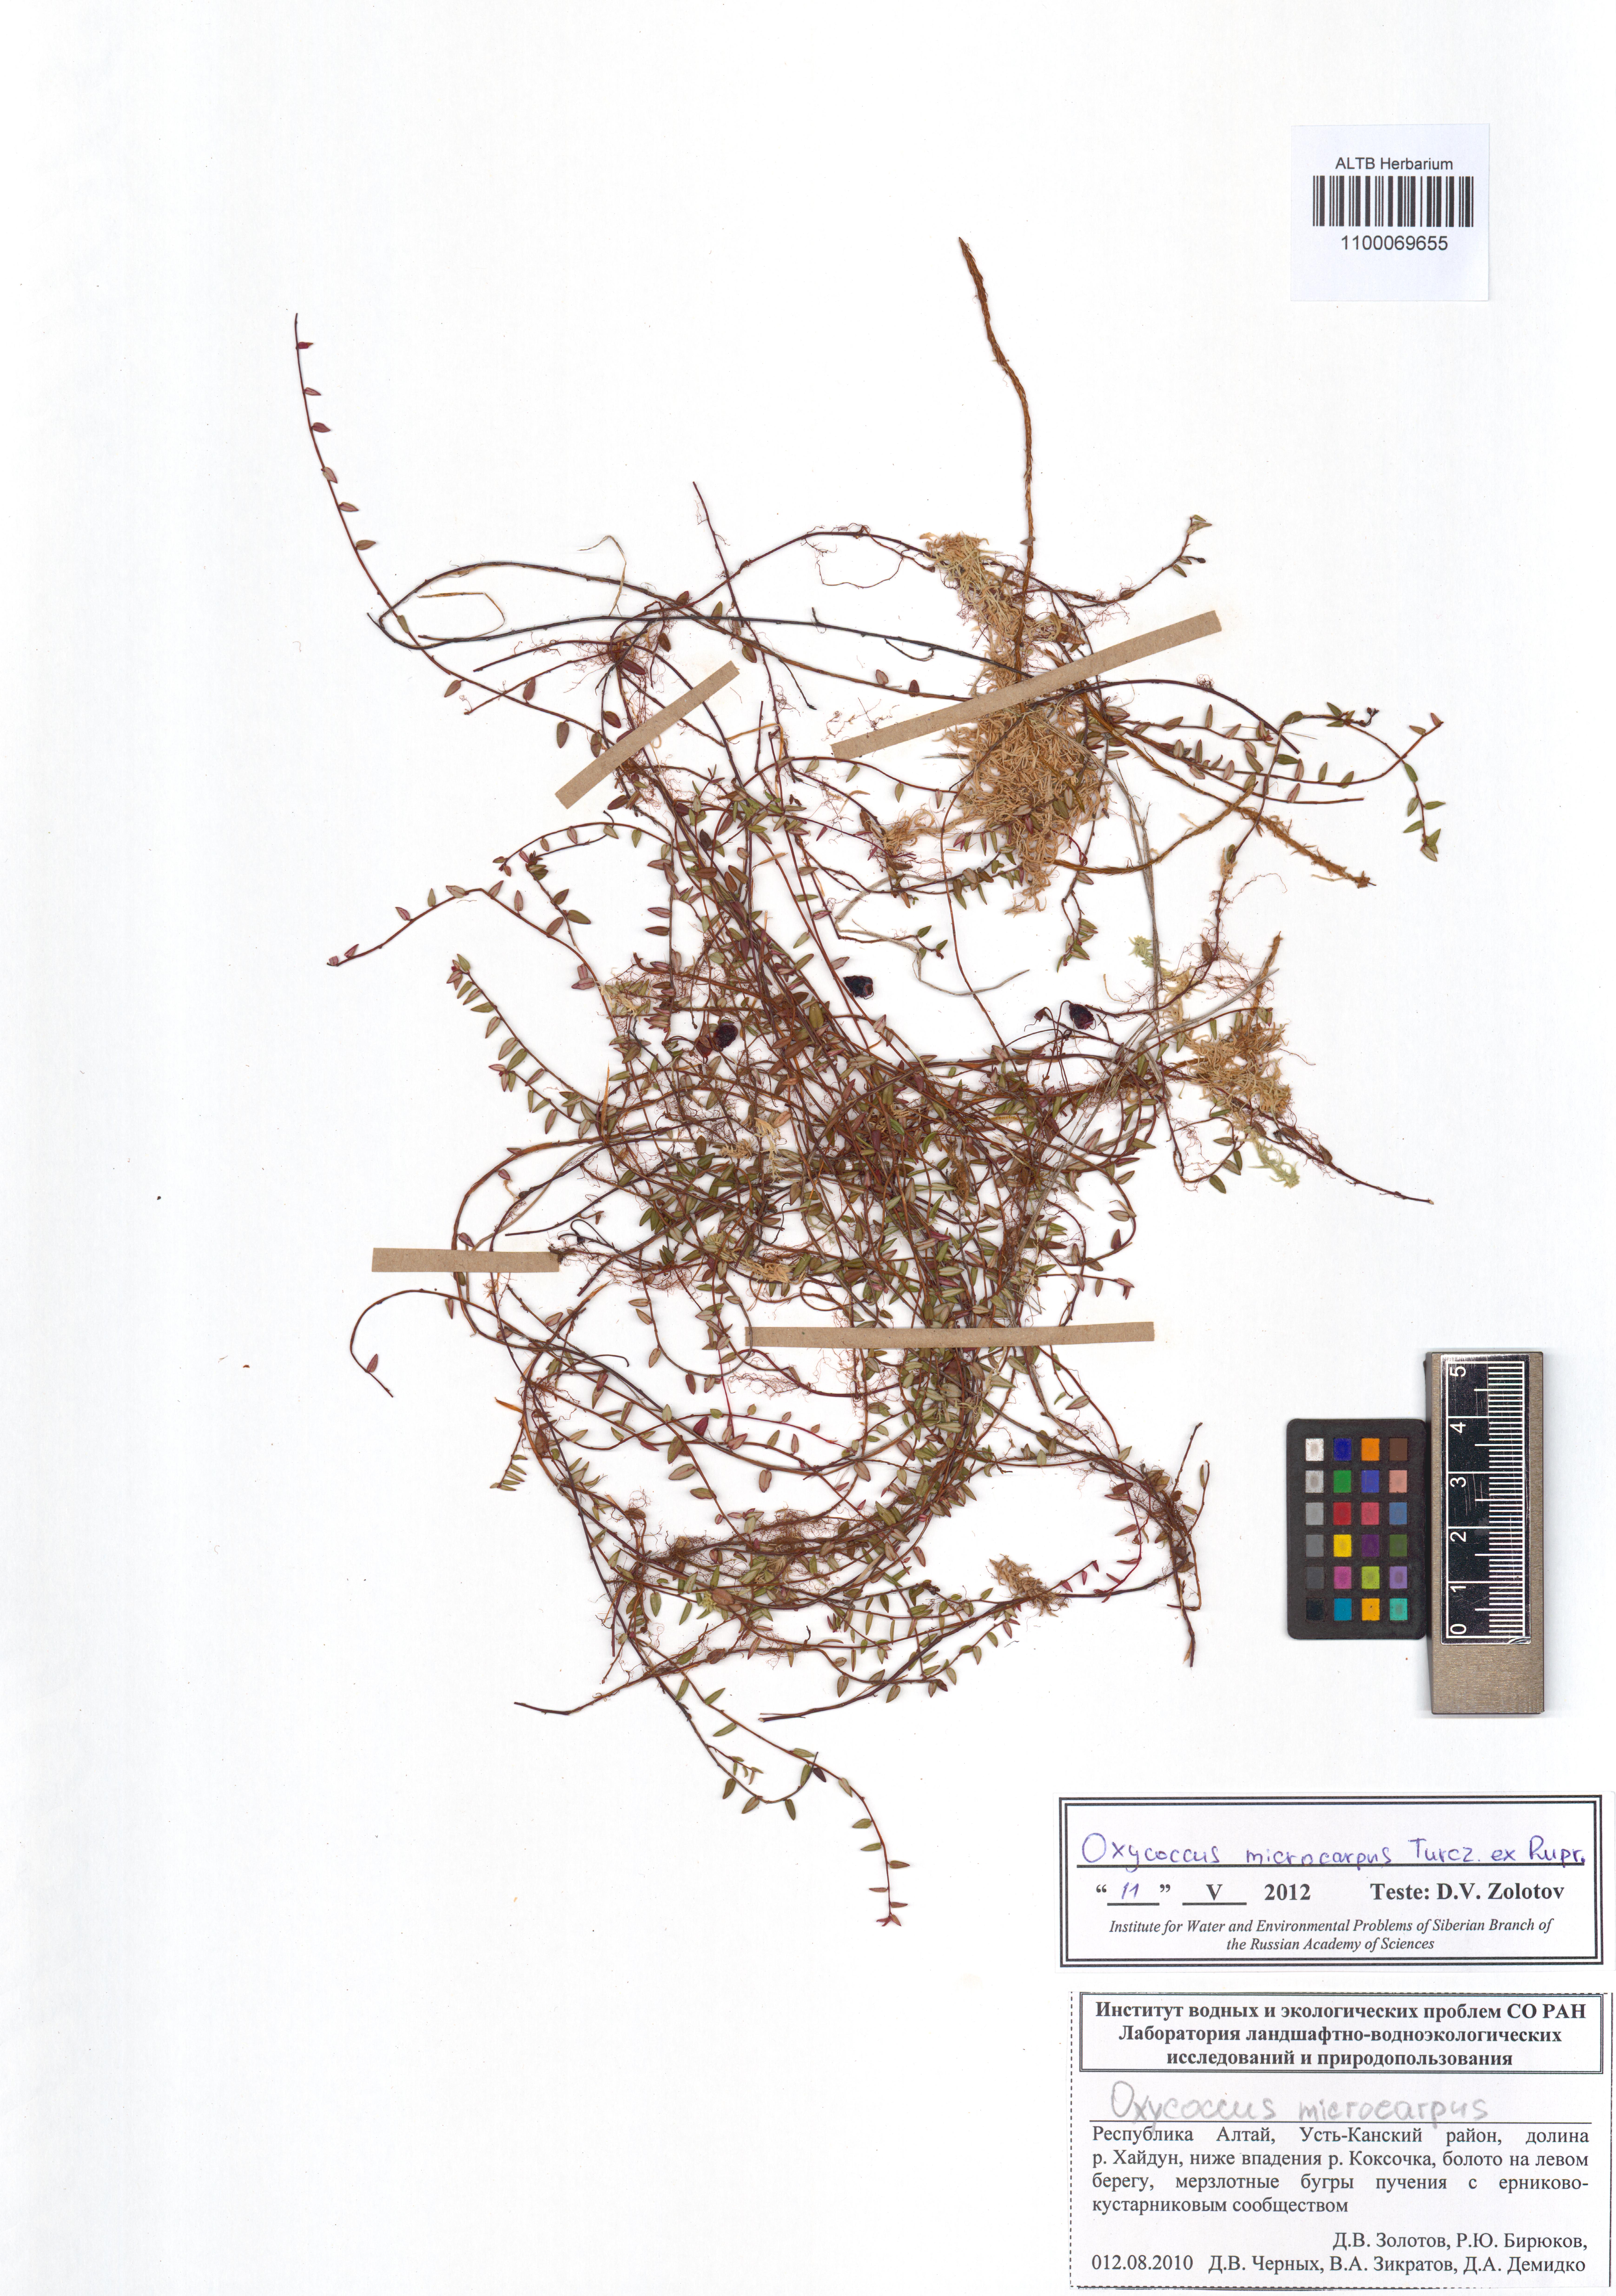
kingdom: Plantae
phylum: Tracheophyta
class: Magnoliopsida
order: Ericales
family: Ericaceae
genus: Vaccinium
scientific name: Vaccinium microcarpum
